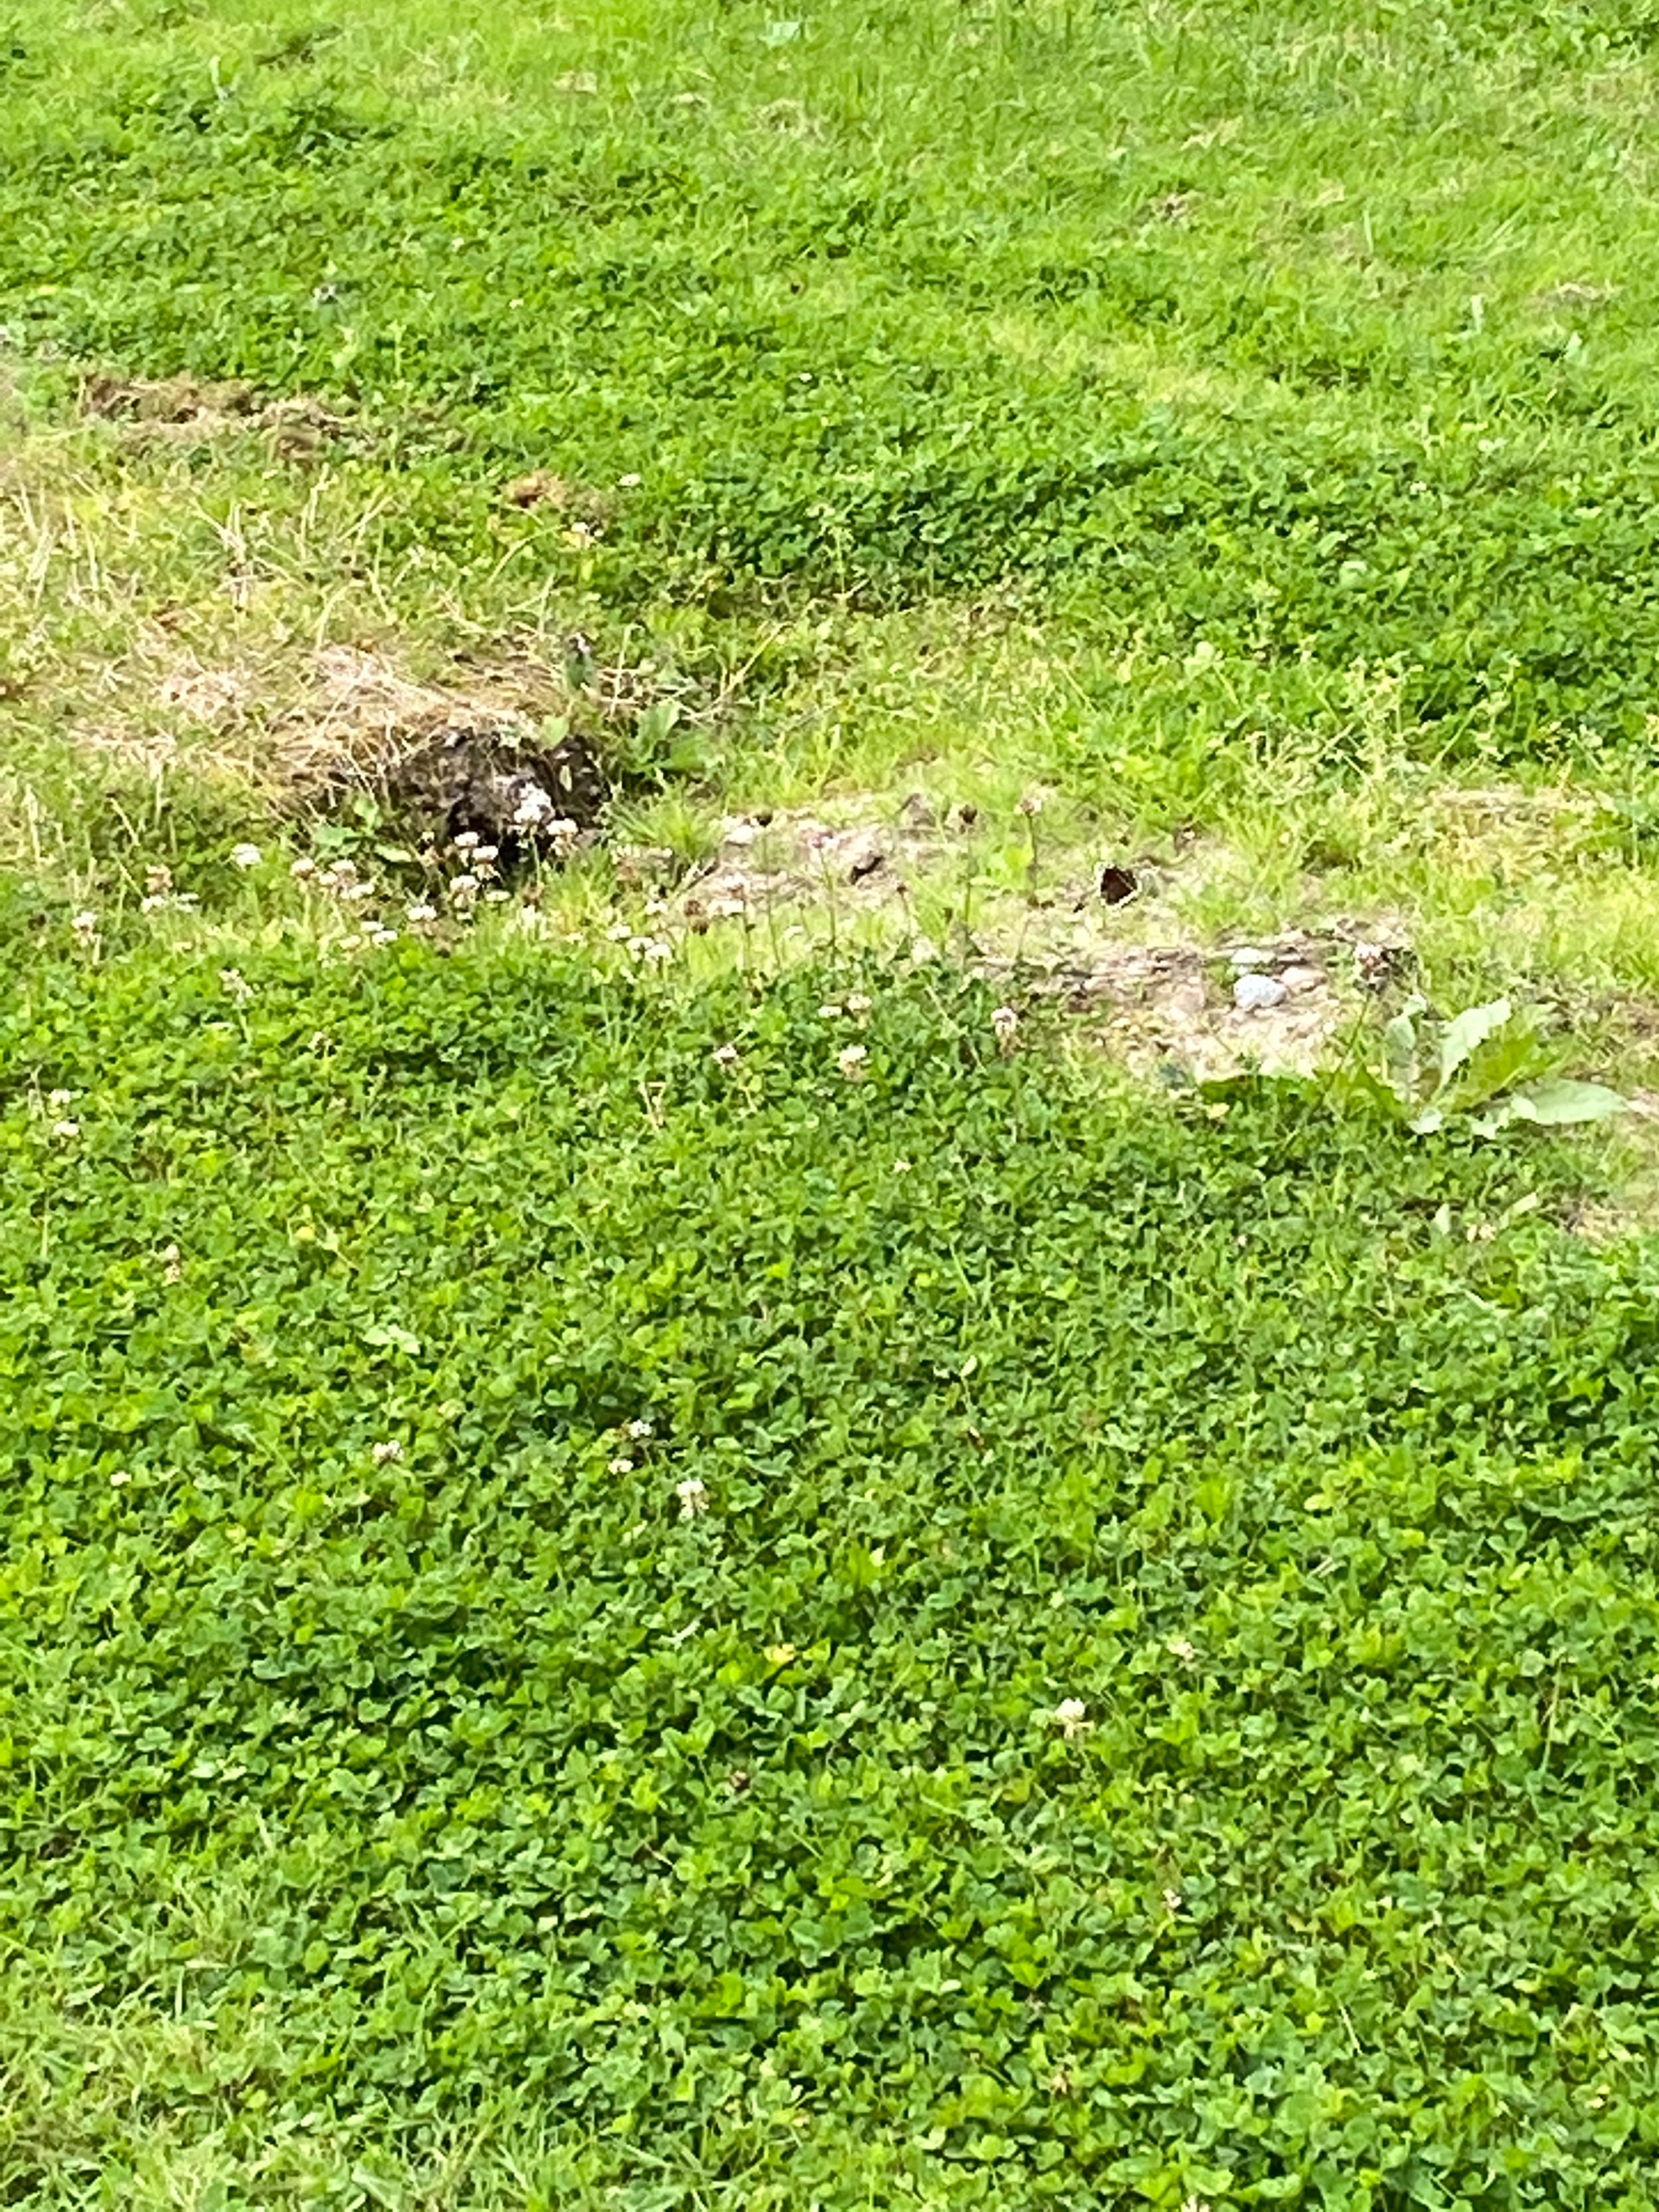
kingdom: Animalia
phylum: Arthropoda
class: Insecta
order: Lepidoptera
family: Nymphalidae
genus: Nymphalis
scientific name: Nymphalis antiopa
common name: Sørgekåbe
